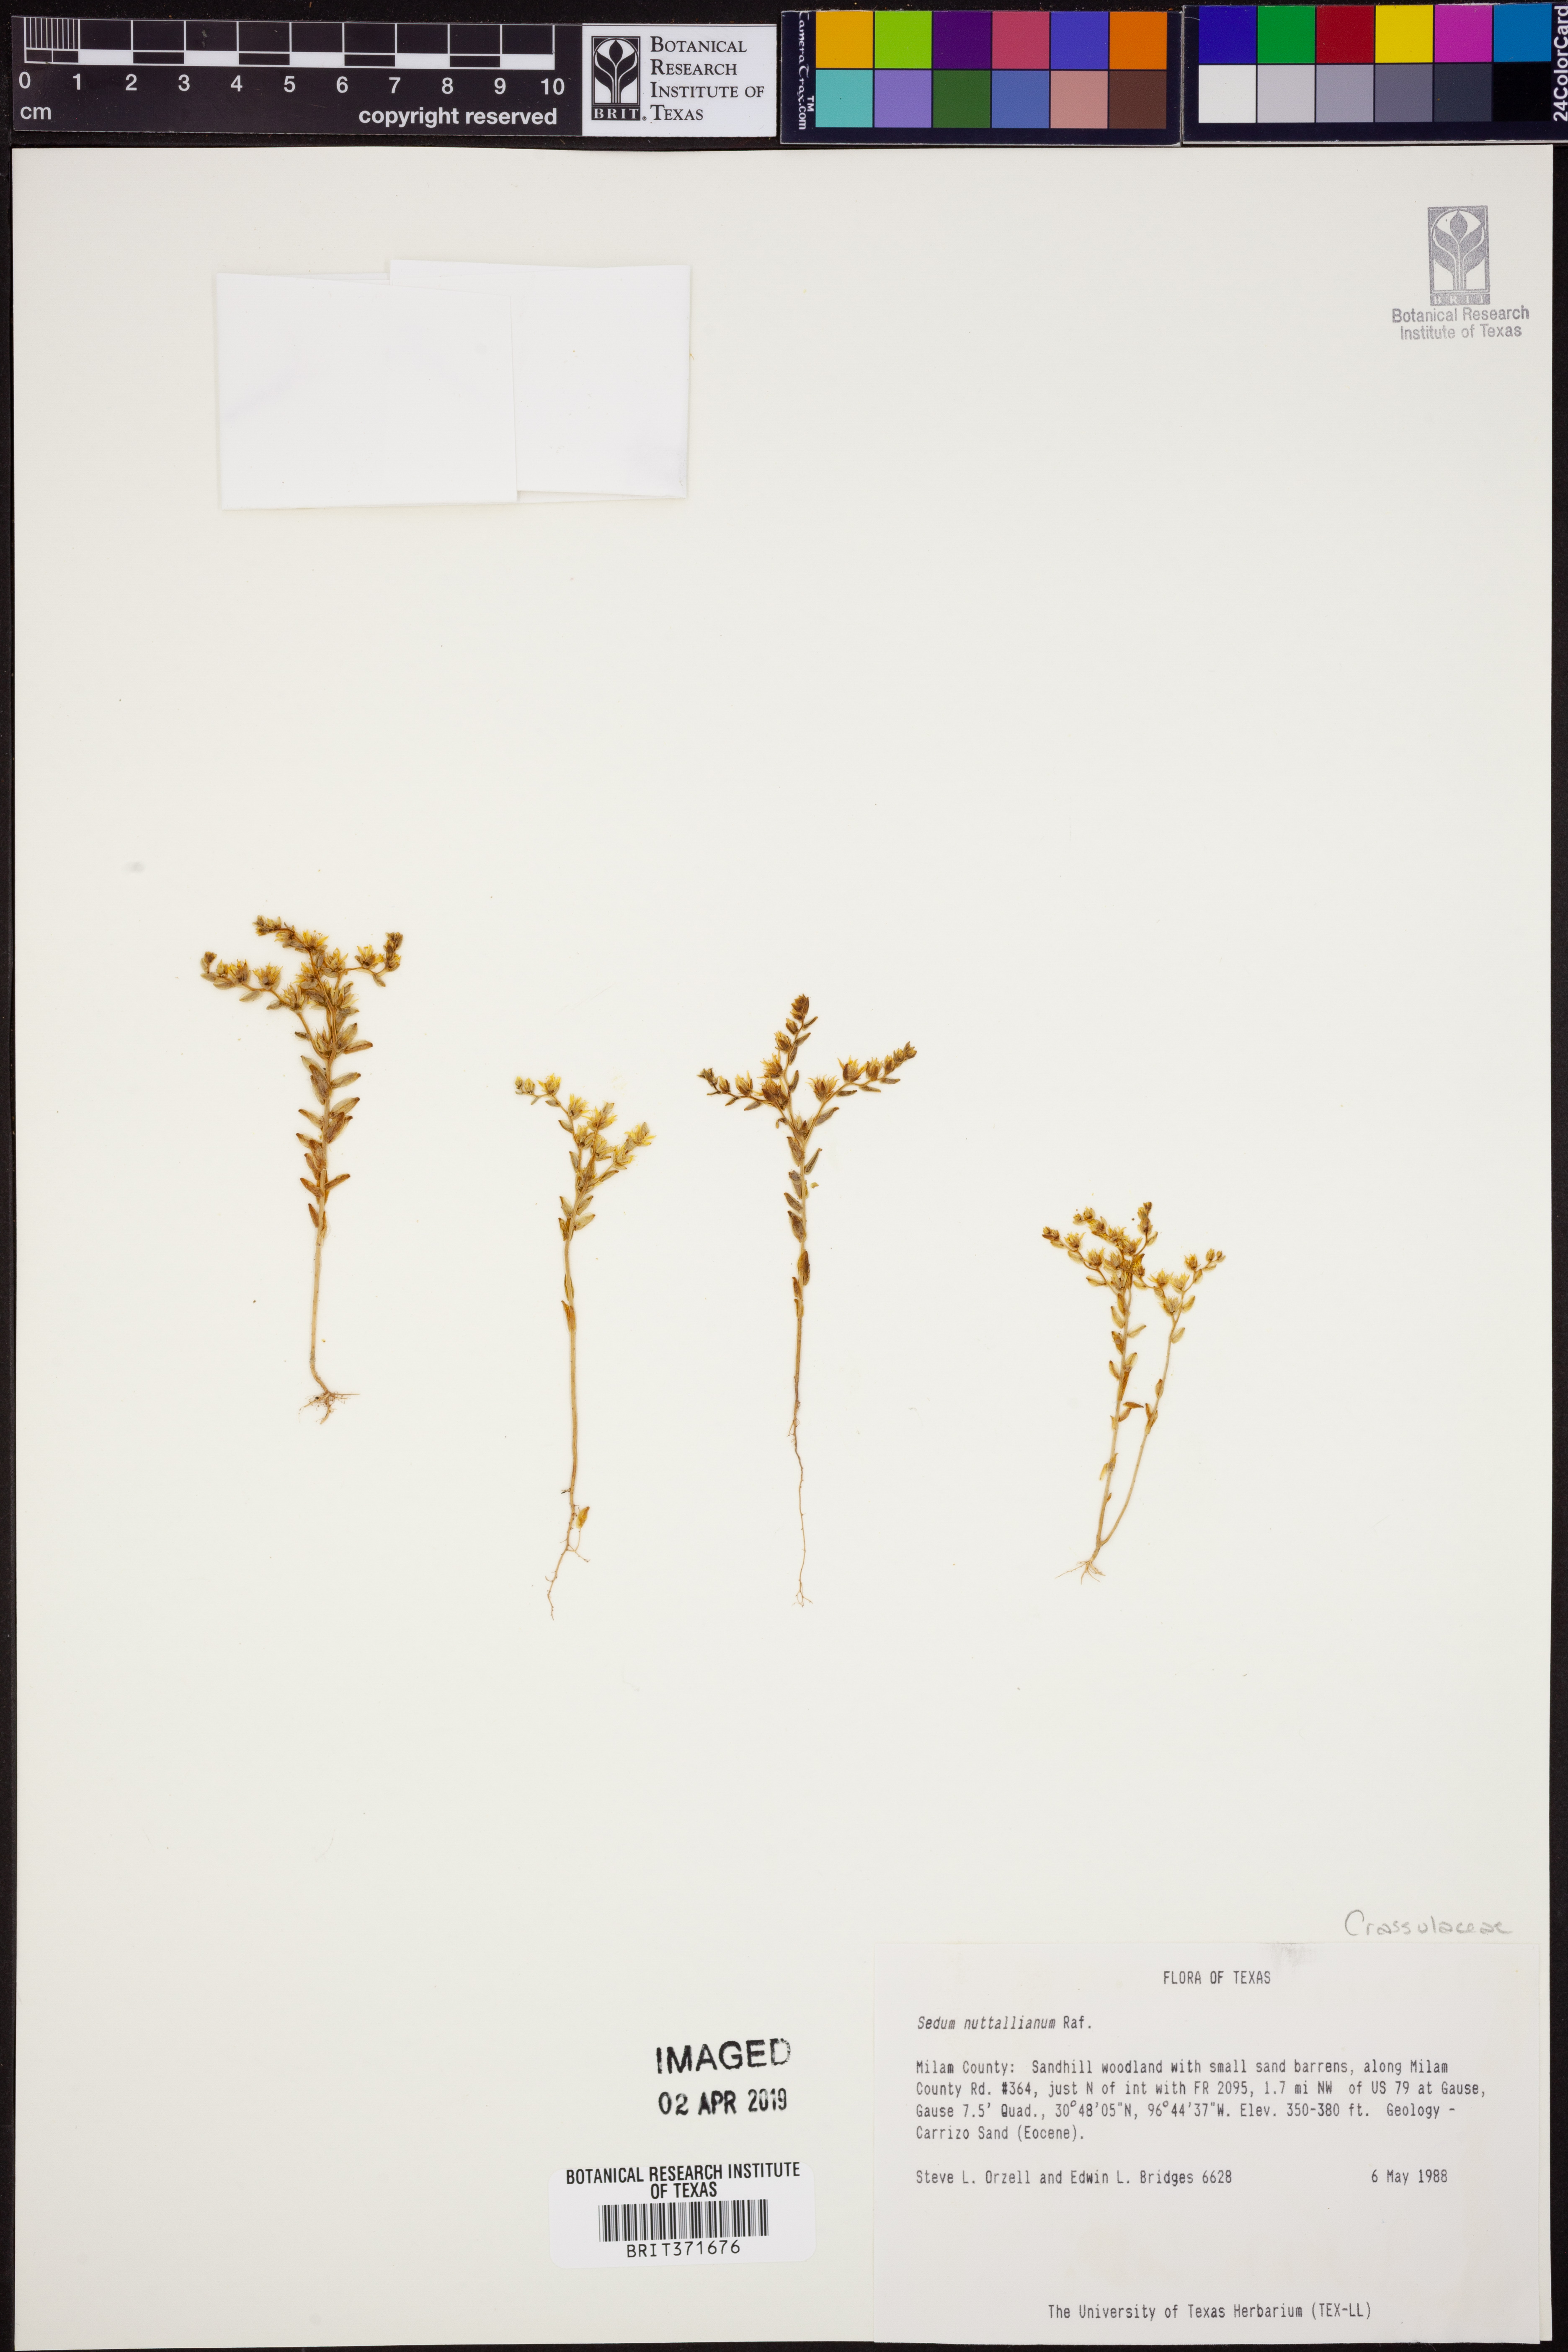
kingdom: Plantae
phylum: Tracheophyta
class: Magnoliopsida
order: Saxifragales
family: Crassulaceae
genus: Sedum
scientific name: Sedum nuttallii
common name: Yellow stonecrop
